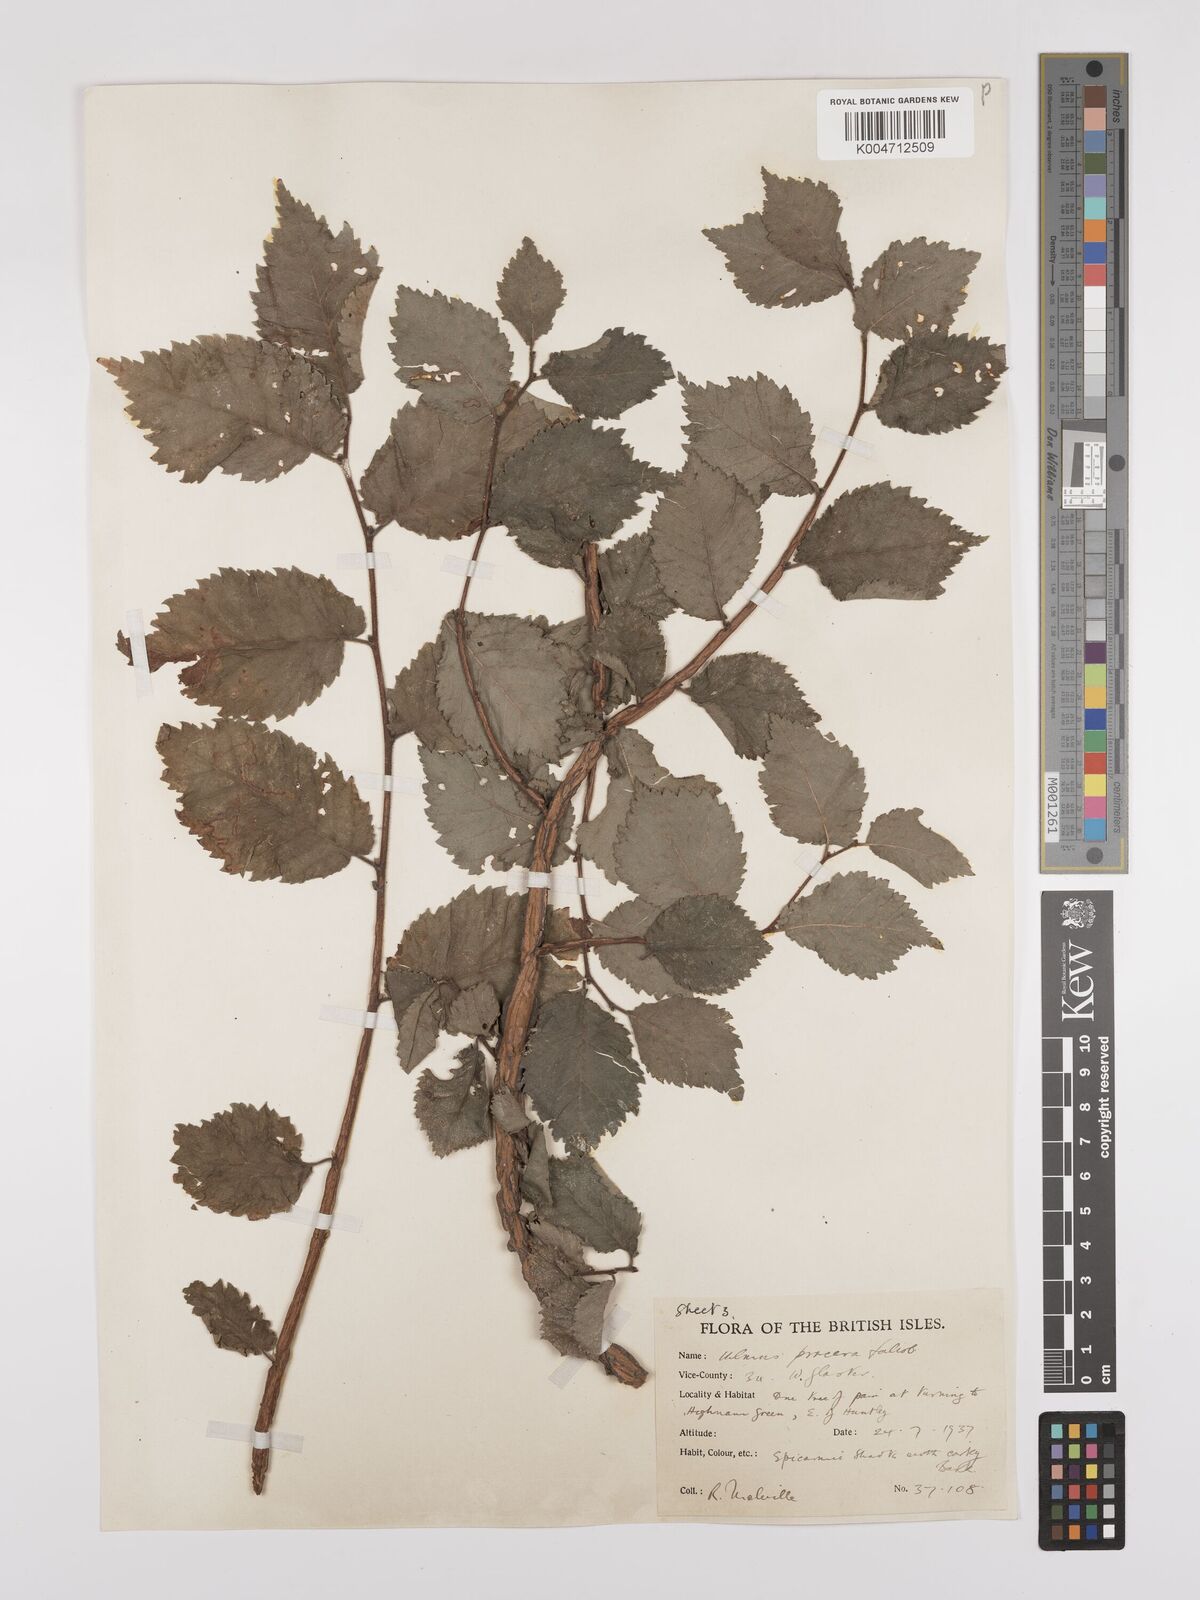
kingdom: Plantae
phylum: Tracheophyta
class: Magnoliopsida
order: Rosales
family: Ulmaceae
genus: Ulmus
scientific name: Ulmus minor
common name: Small-leaved elm
